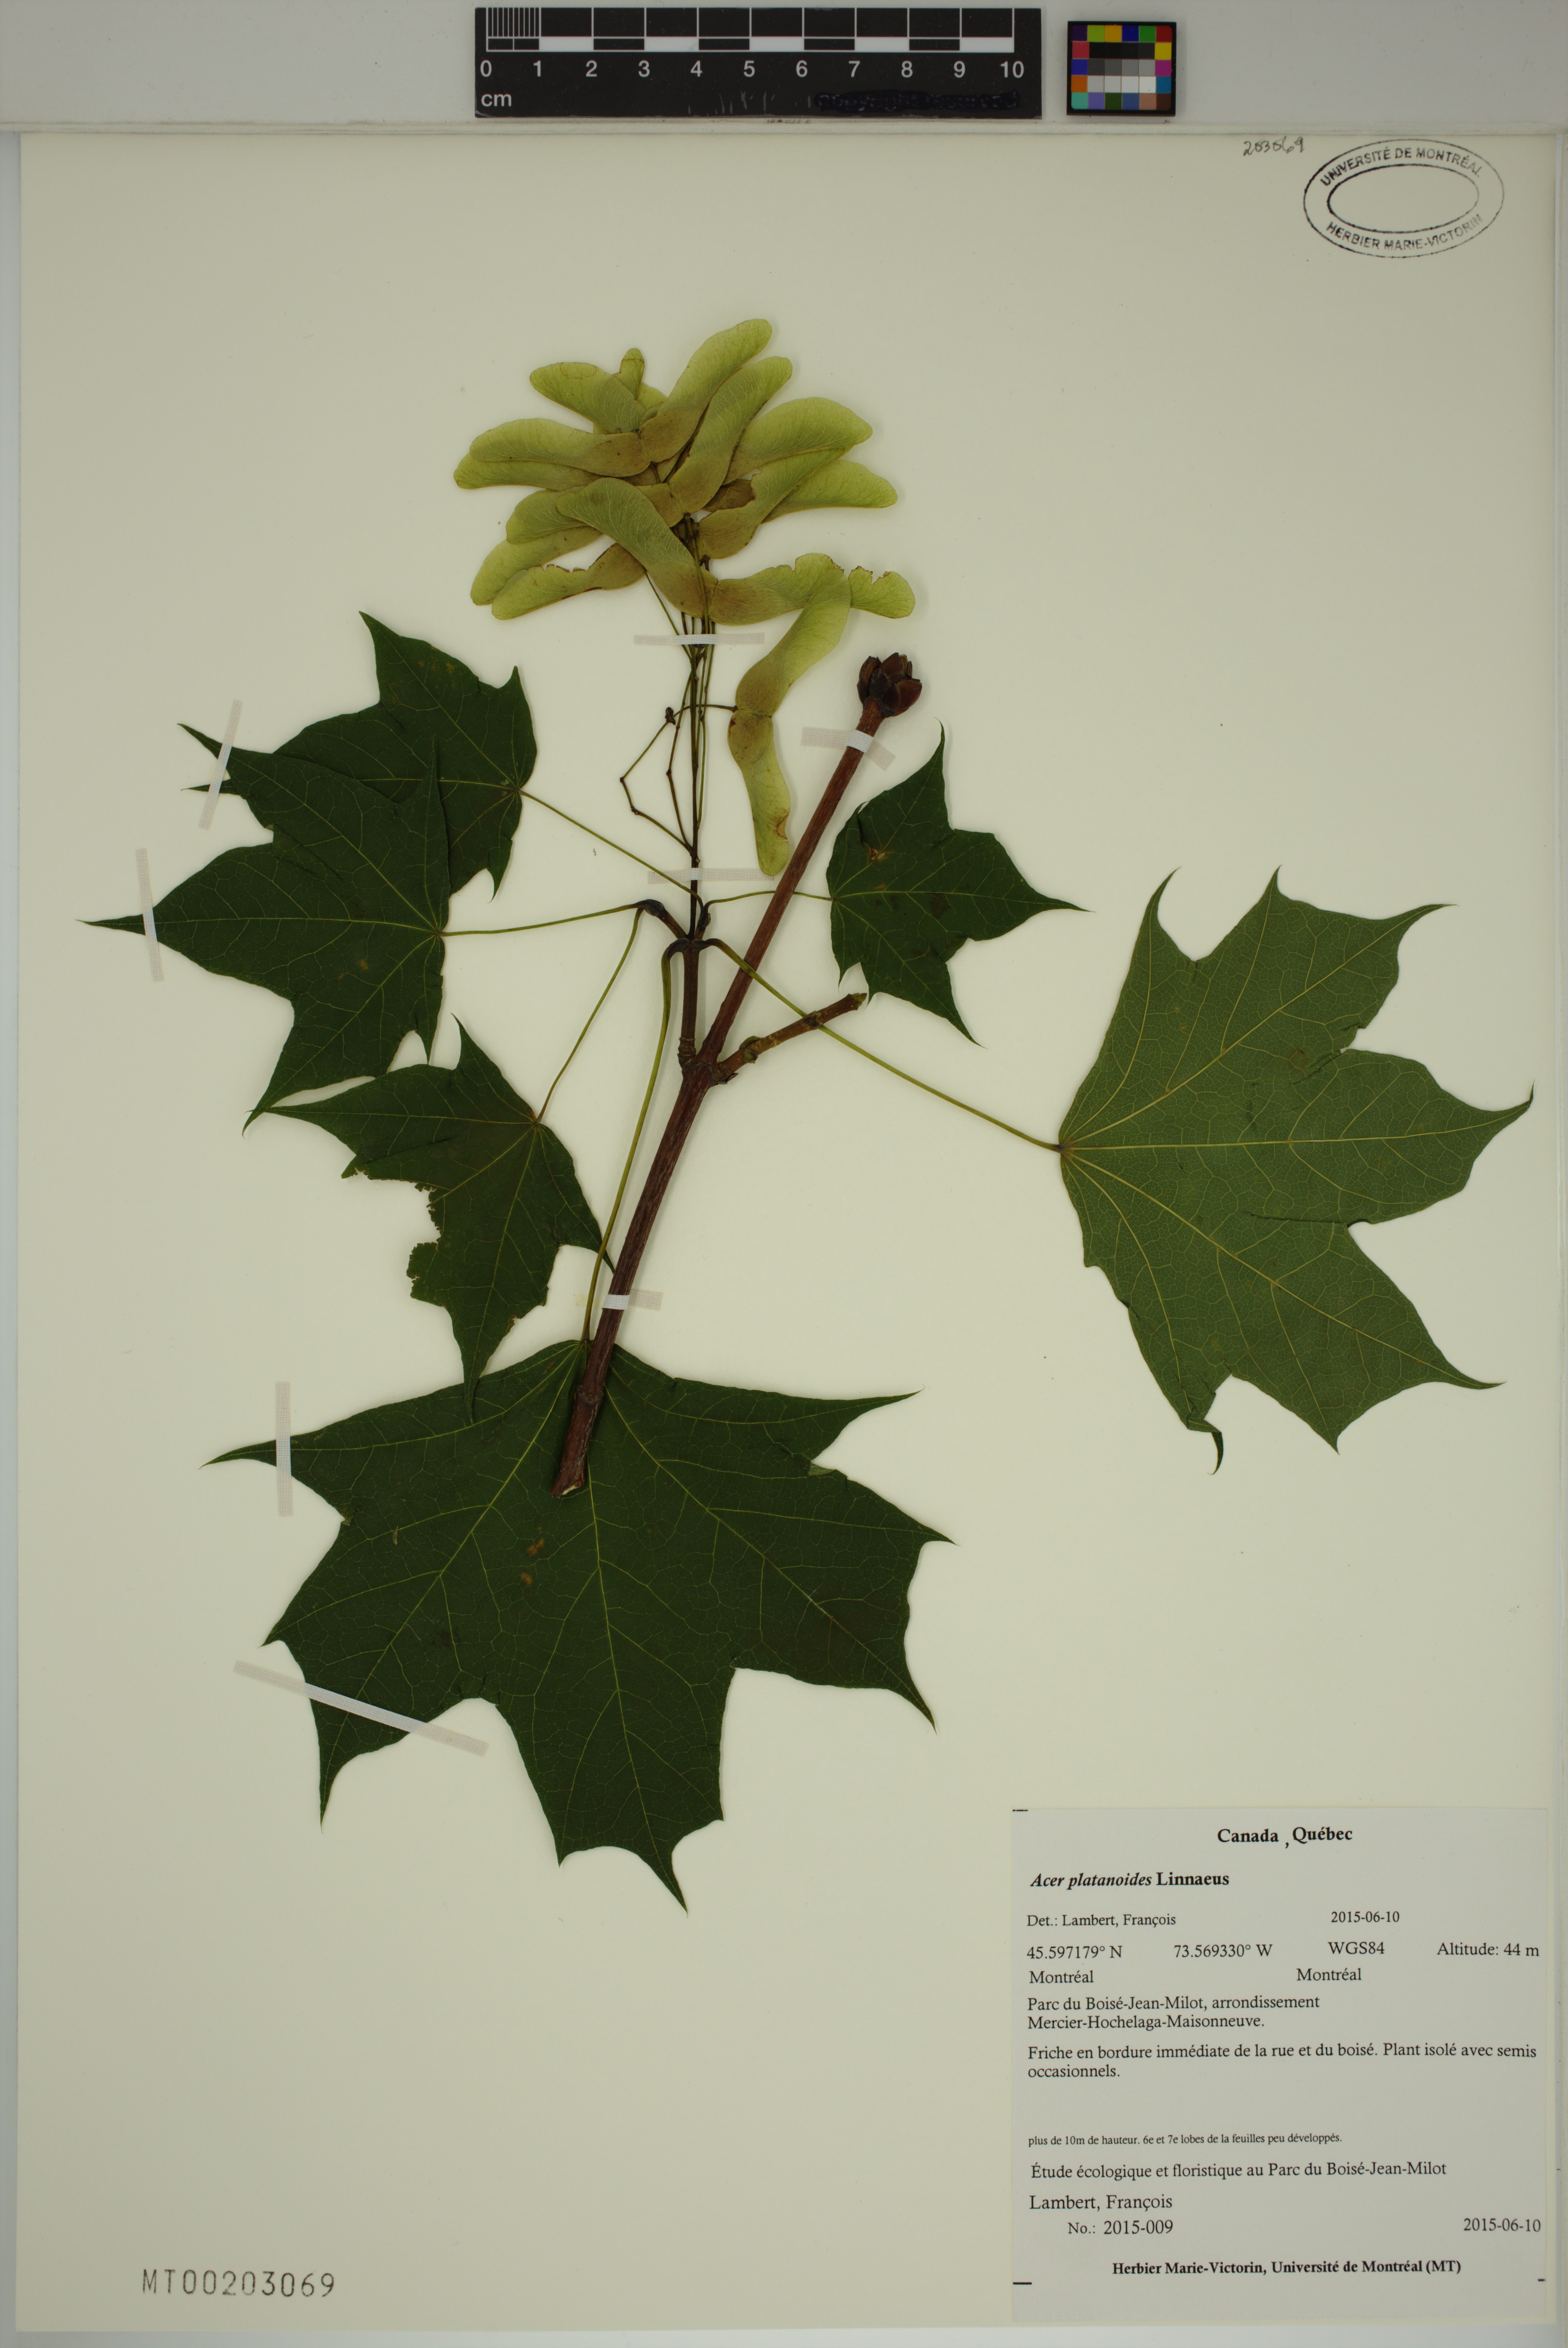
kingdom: Plantae
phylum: Tracheophyta
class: Magnoliopsida
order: Sapindales
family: Sapindaceae
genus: Acer
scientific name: Acer platanoides
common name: Norway maple
